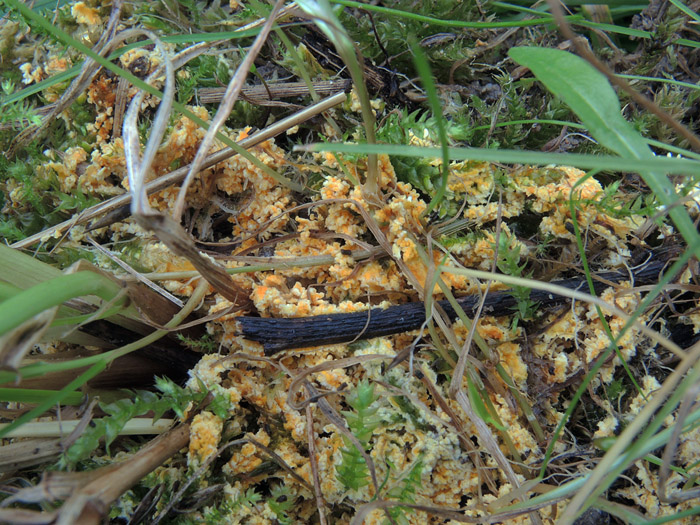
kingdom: Fungi
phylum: Basidiomycota
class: Agaricomycetes
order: Agaricales
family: Stephanosporaceae
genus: Lindtneria
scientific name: Lindtneria panphyliensis
